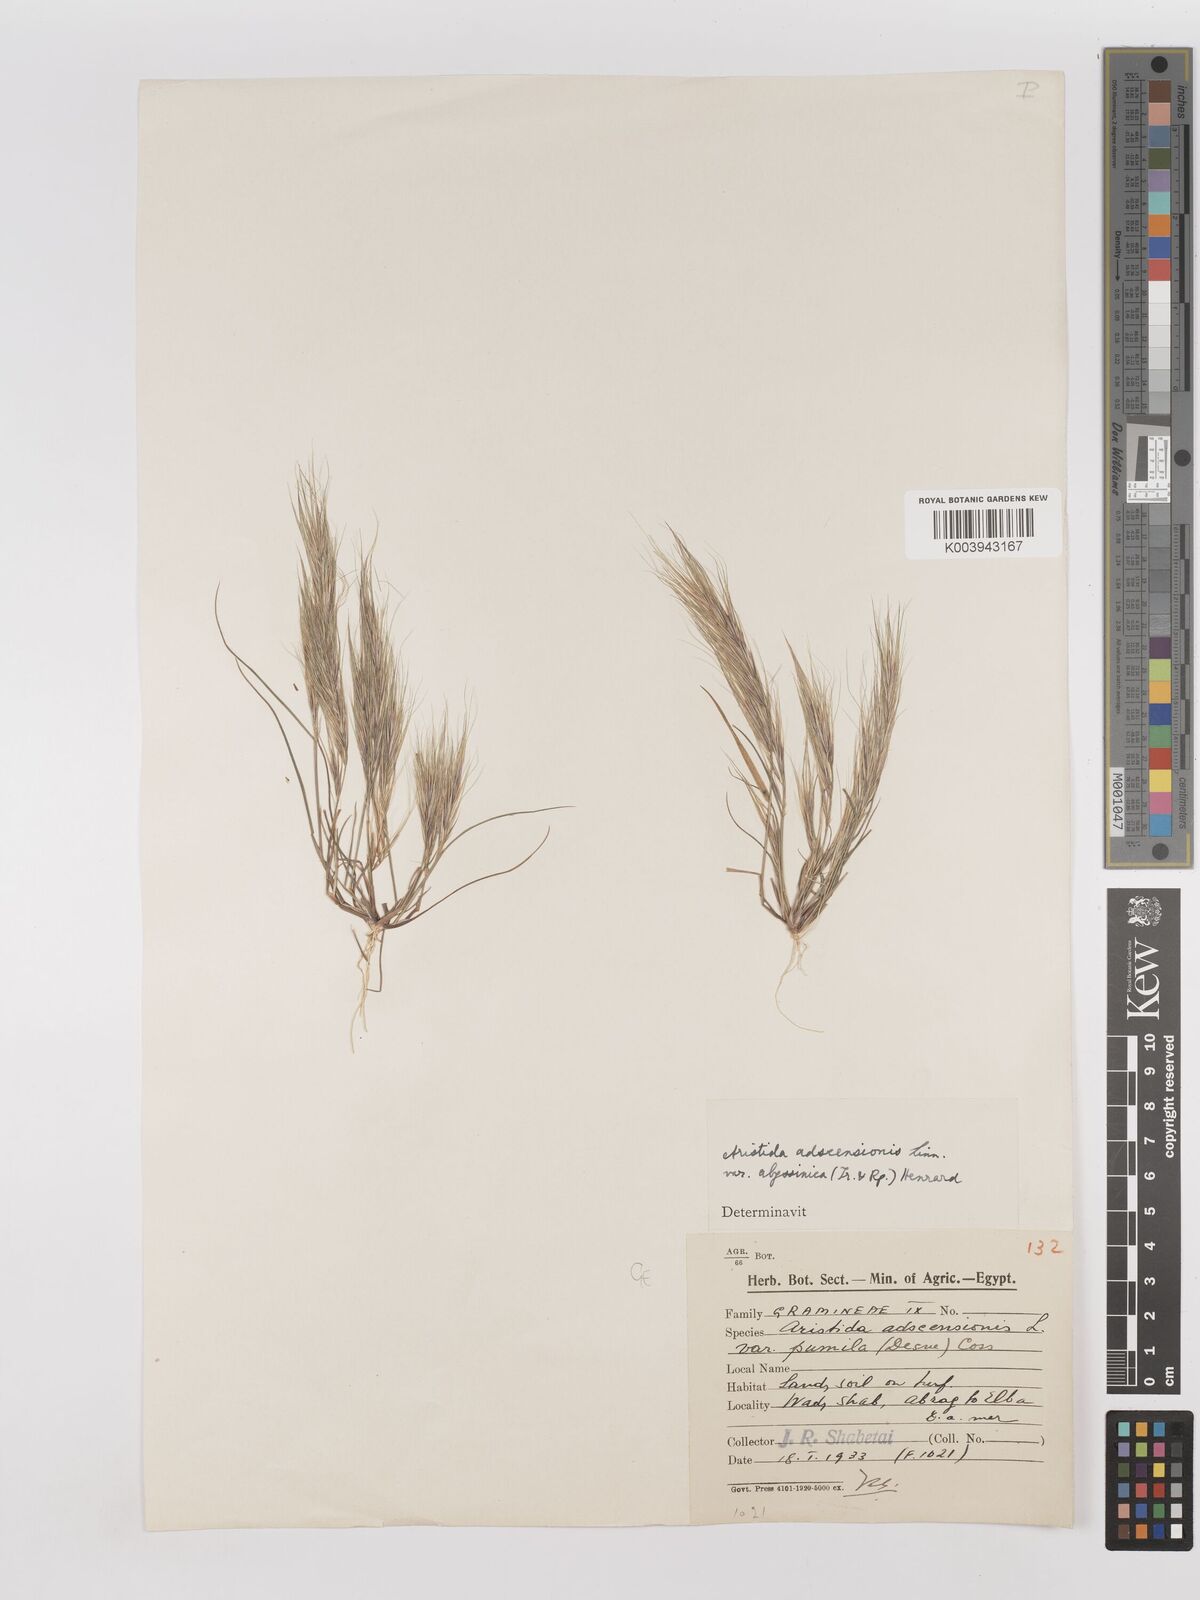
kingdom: Plantae
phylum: Tracheophyta
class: Liliopsida
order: Poales
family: Poaceae
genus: Aristida
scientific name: Aristida adscensionis
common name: Sixweeks threeawn
